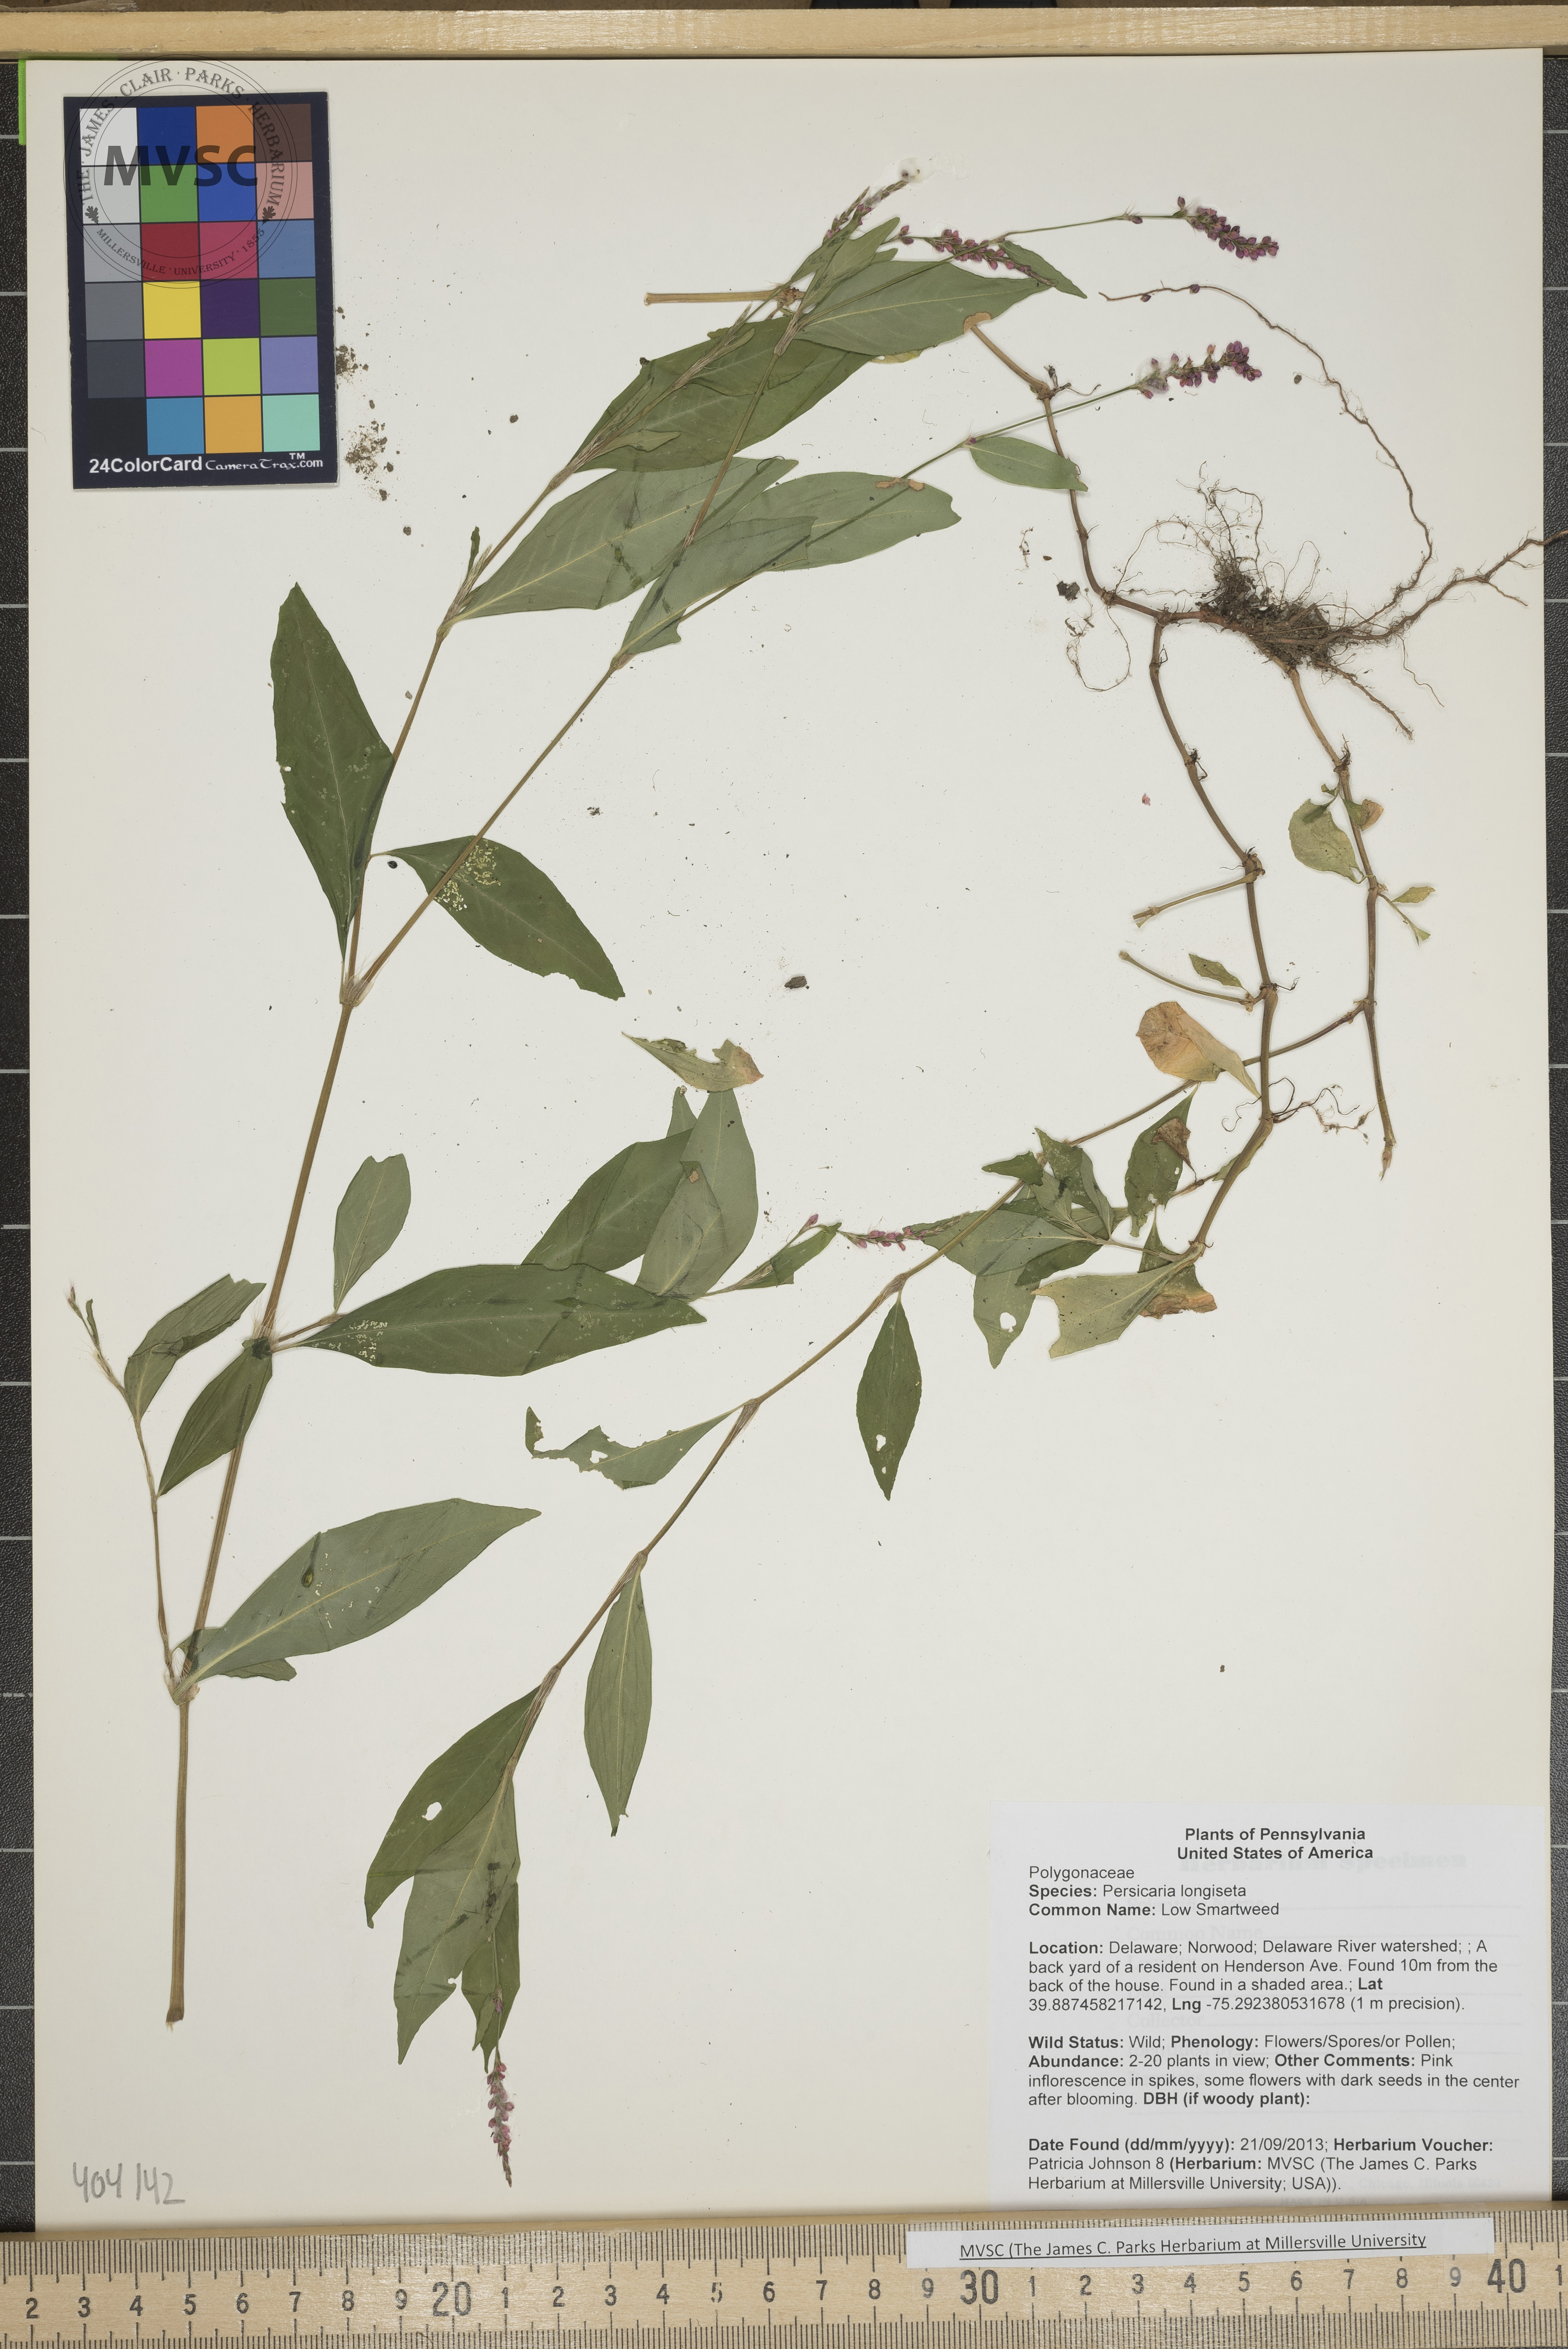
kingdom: Plantae
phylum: Tracheophyta
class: Magnoliopsida
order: Caryophyllales
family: Polygonaceae
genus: Persicaria
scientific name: Persicaria longiseta
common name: Low Smartweed
